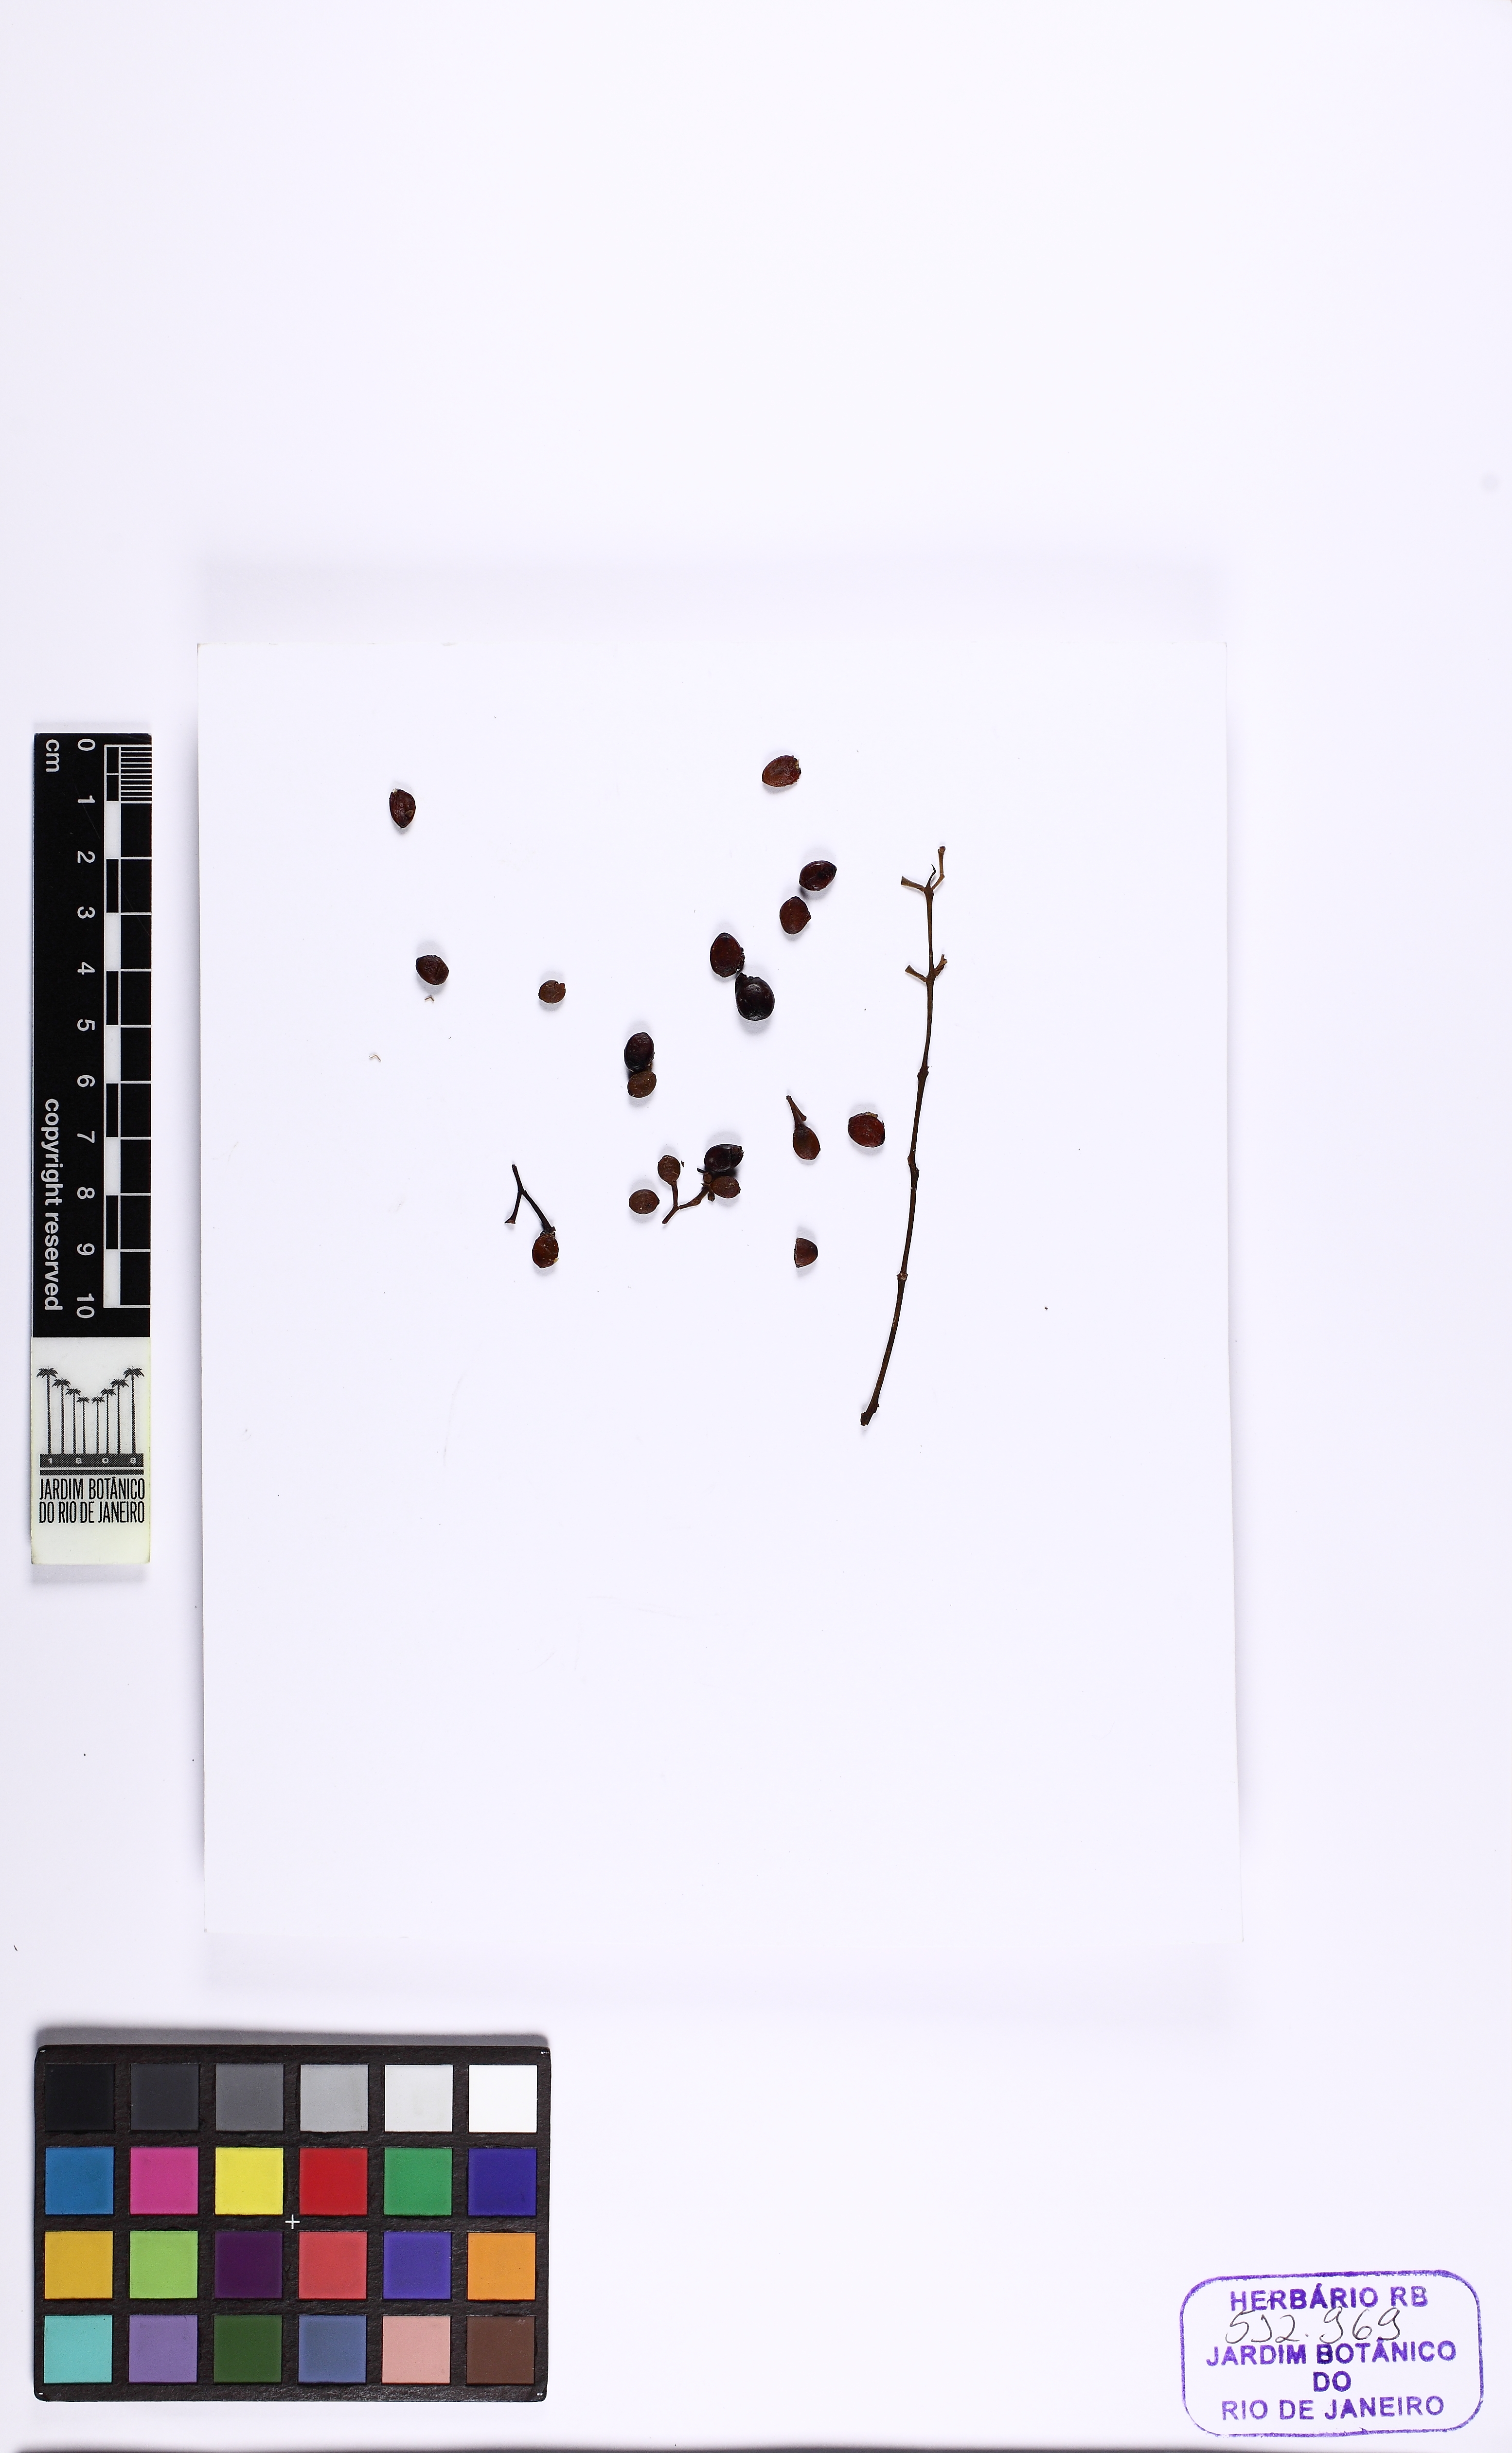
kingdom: Plantae
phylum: Tracheophyta
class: Magnoliopsida
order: Santalales
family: Loranthaceae
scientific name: Loranthaceae
